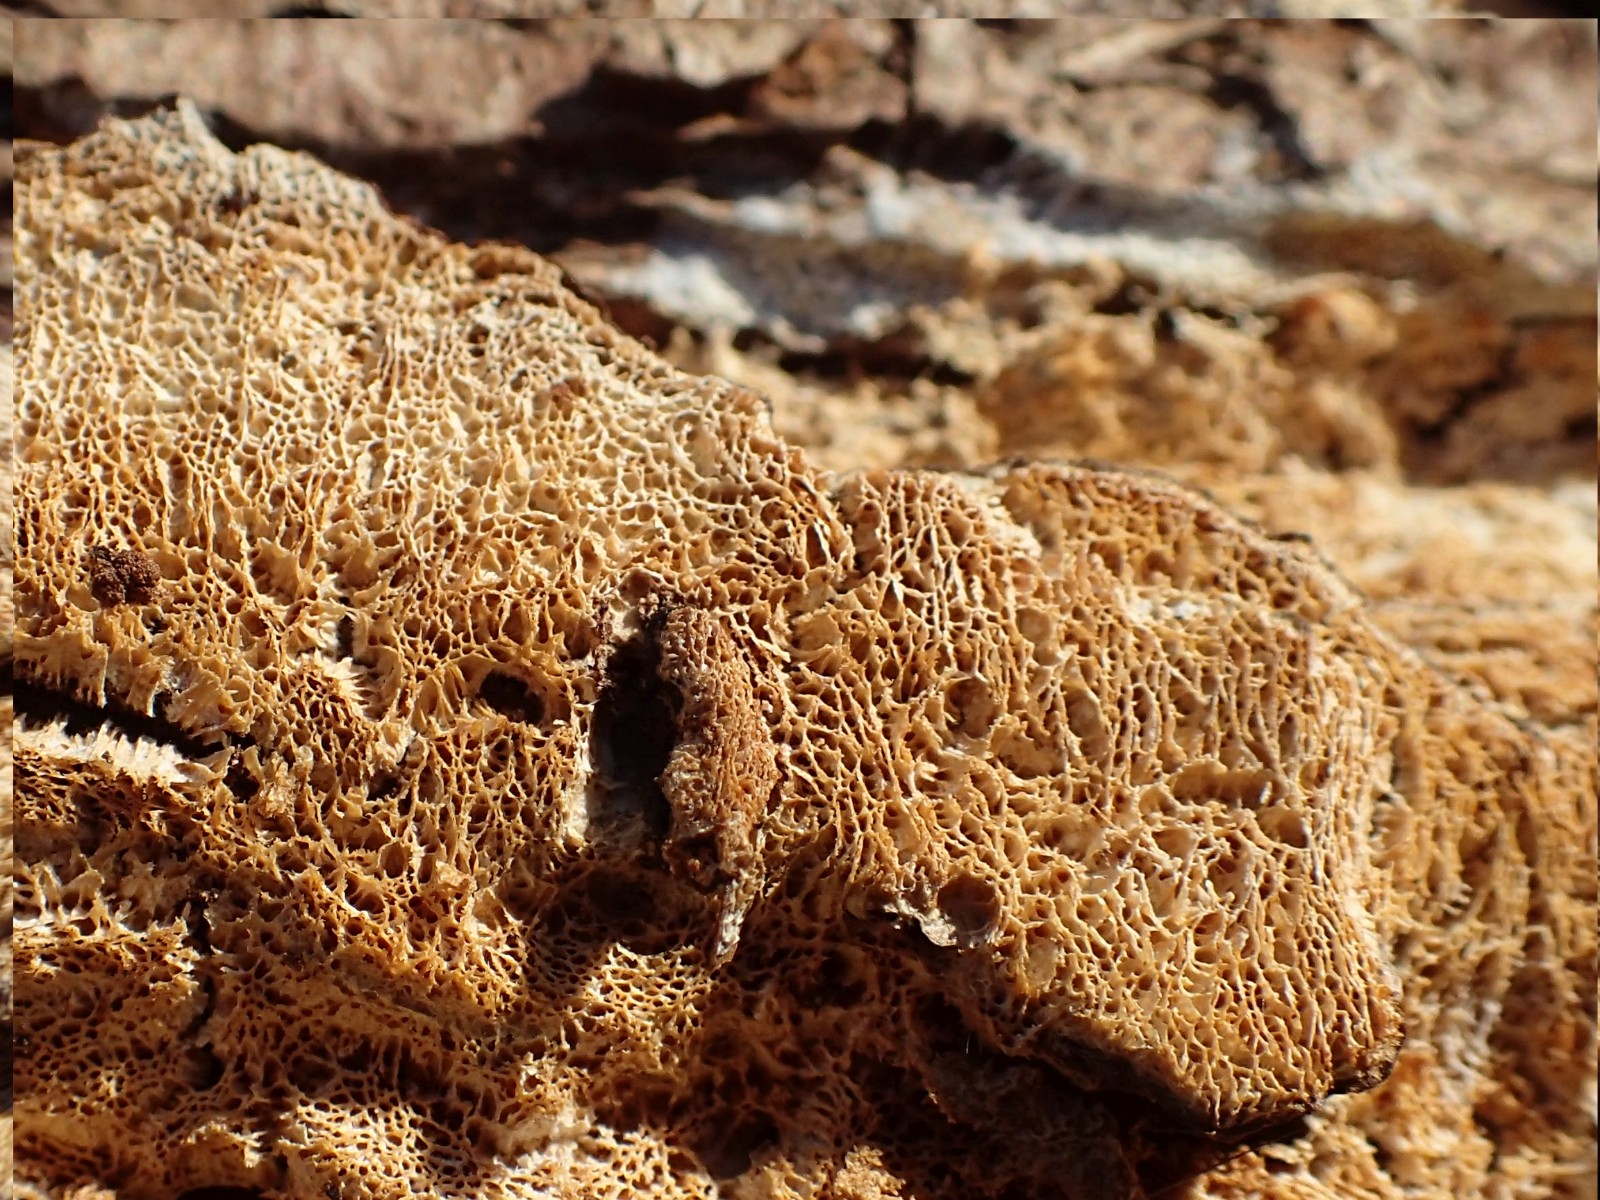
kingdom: Fungi
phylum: Basidiomycota
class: Agaricomycetes
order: Polyporales
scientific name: Polyporales
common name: poresvampordenen
